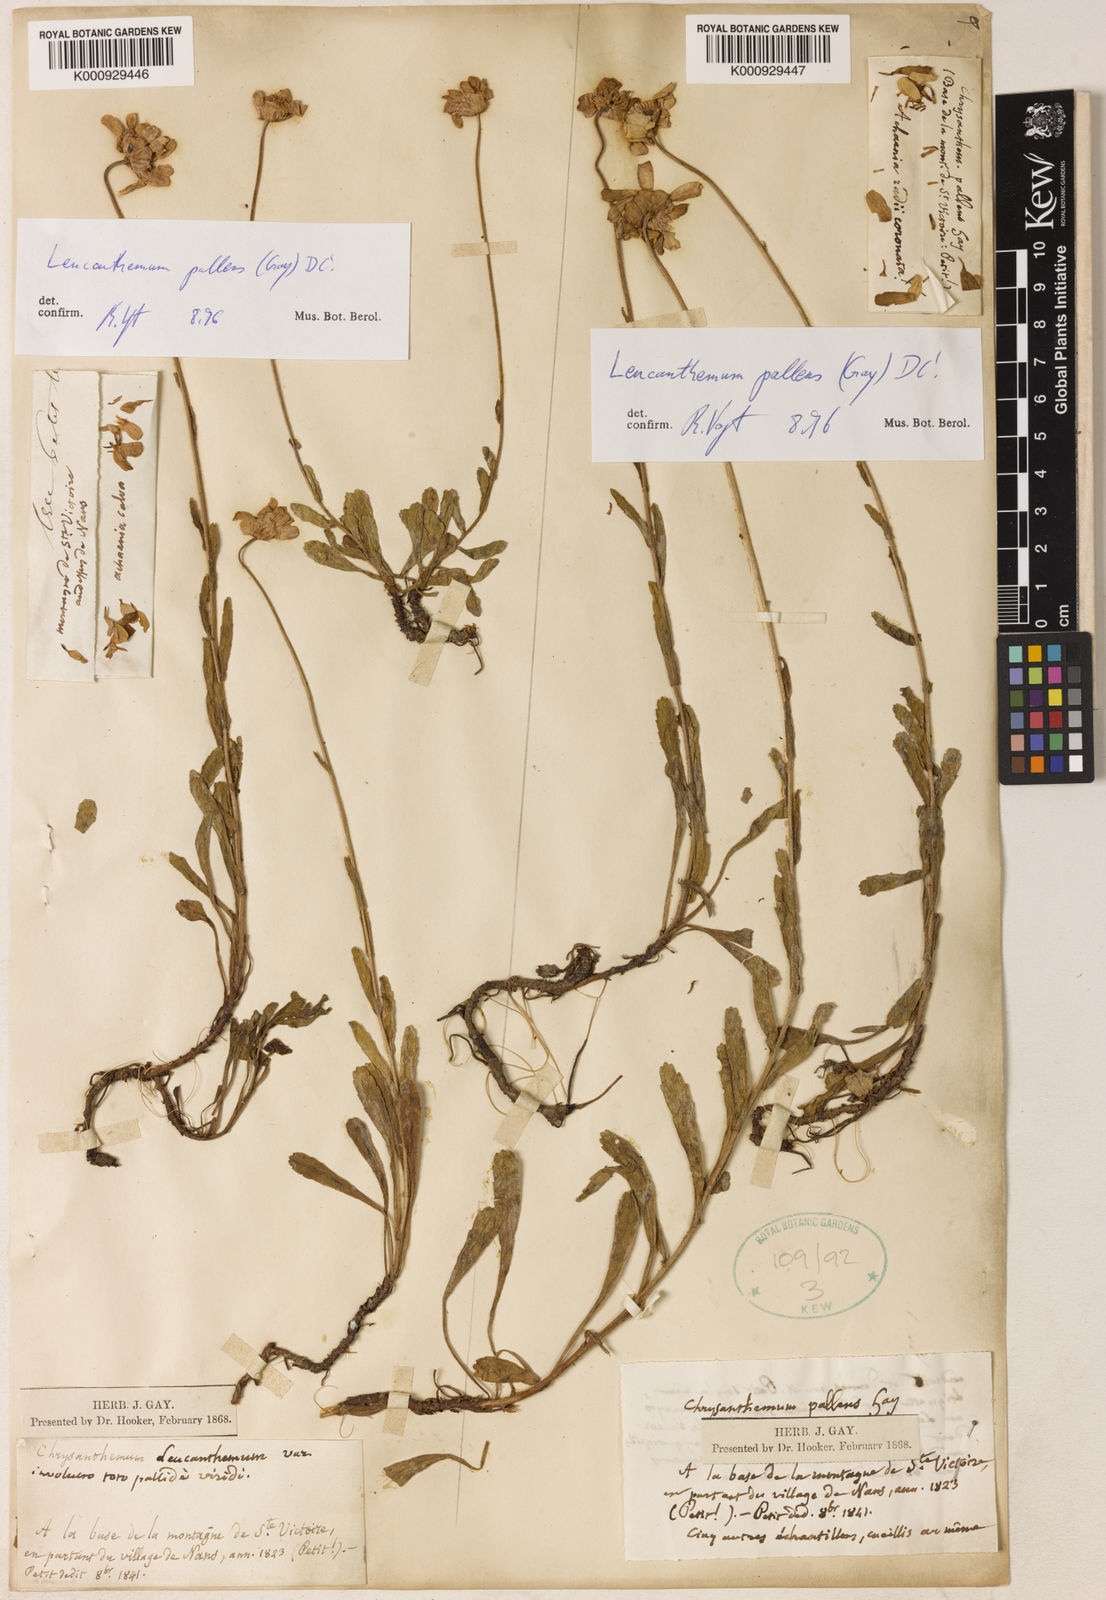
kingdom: Plantae
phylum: Tracheophyta
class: Magnoliopsida
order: Asterales
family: Asteraceae
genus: Leucanthemum
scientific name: Leucanthemum pallens
